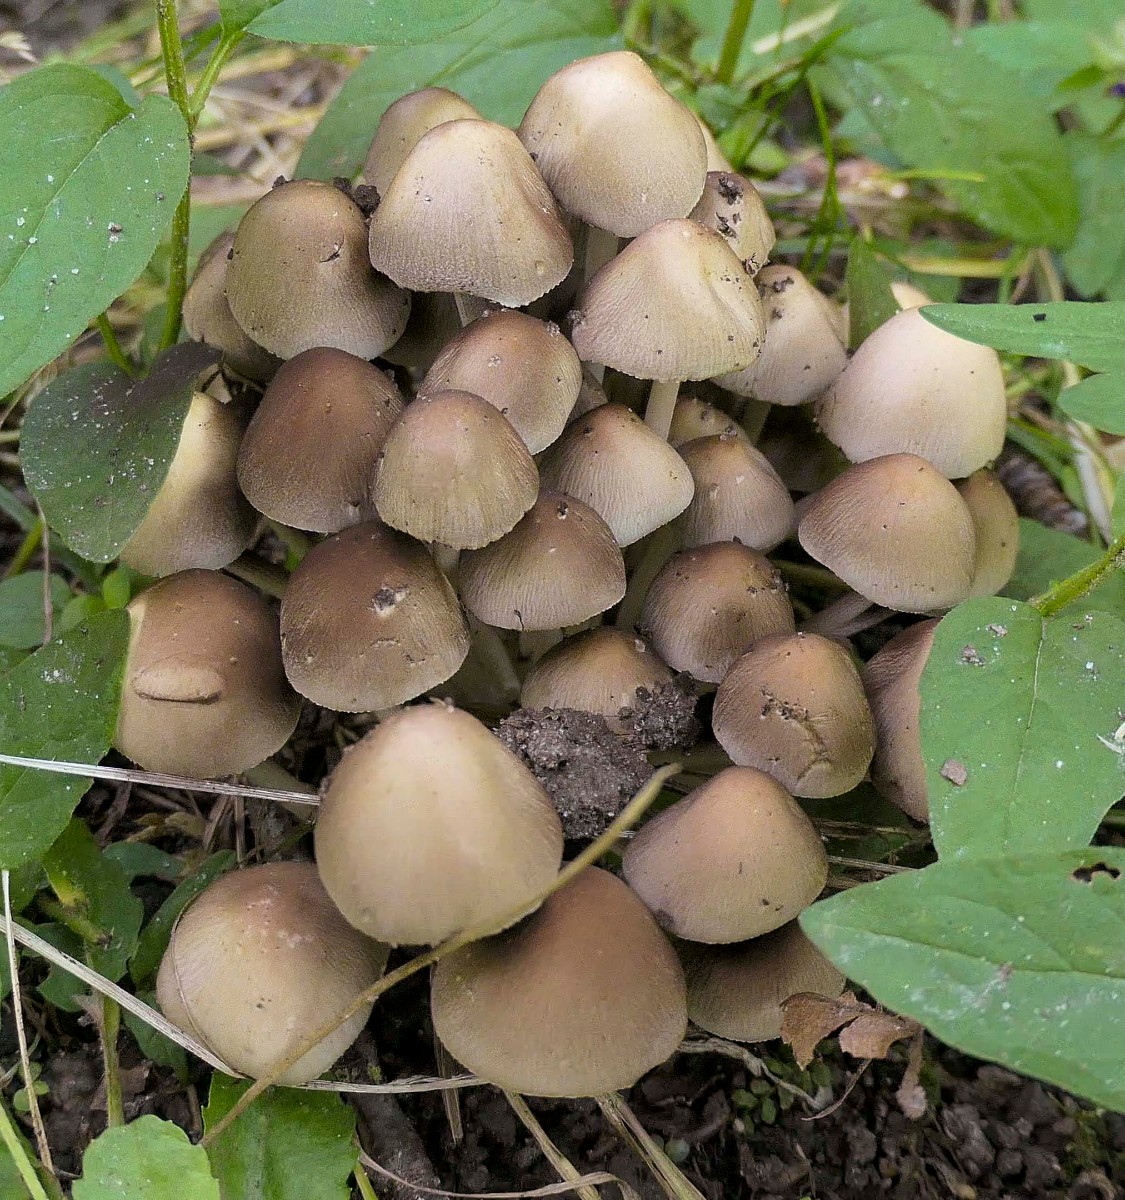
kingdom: Fungi
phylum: Basidiomycota
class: Agaricomycetes
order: Agaricales
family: Psathyrellaceae
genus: Britzelmayria
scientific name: Britzelmayria multipedata
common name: knippe-mørkhat
